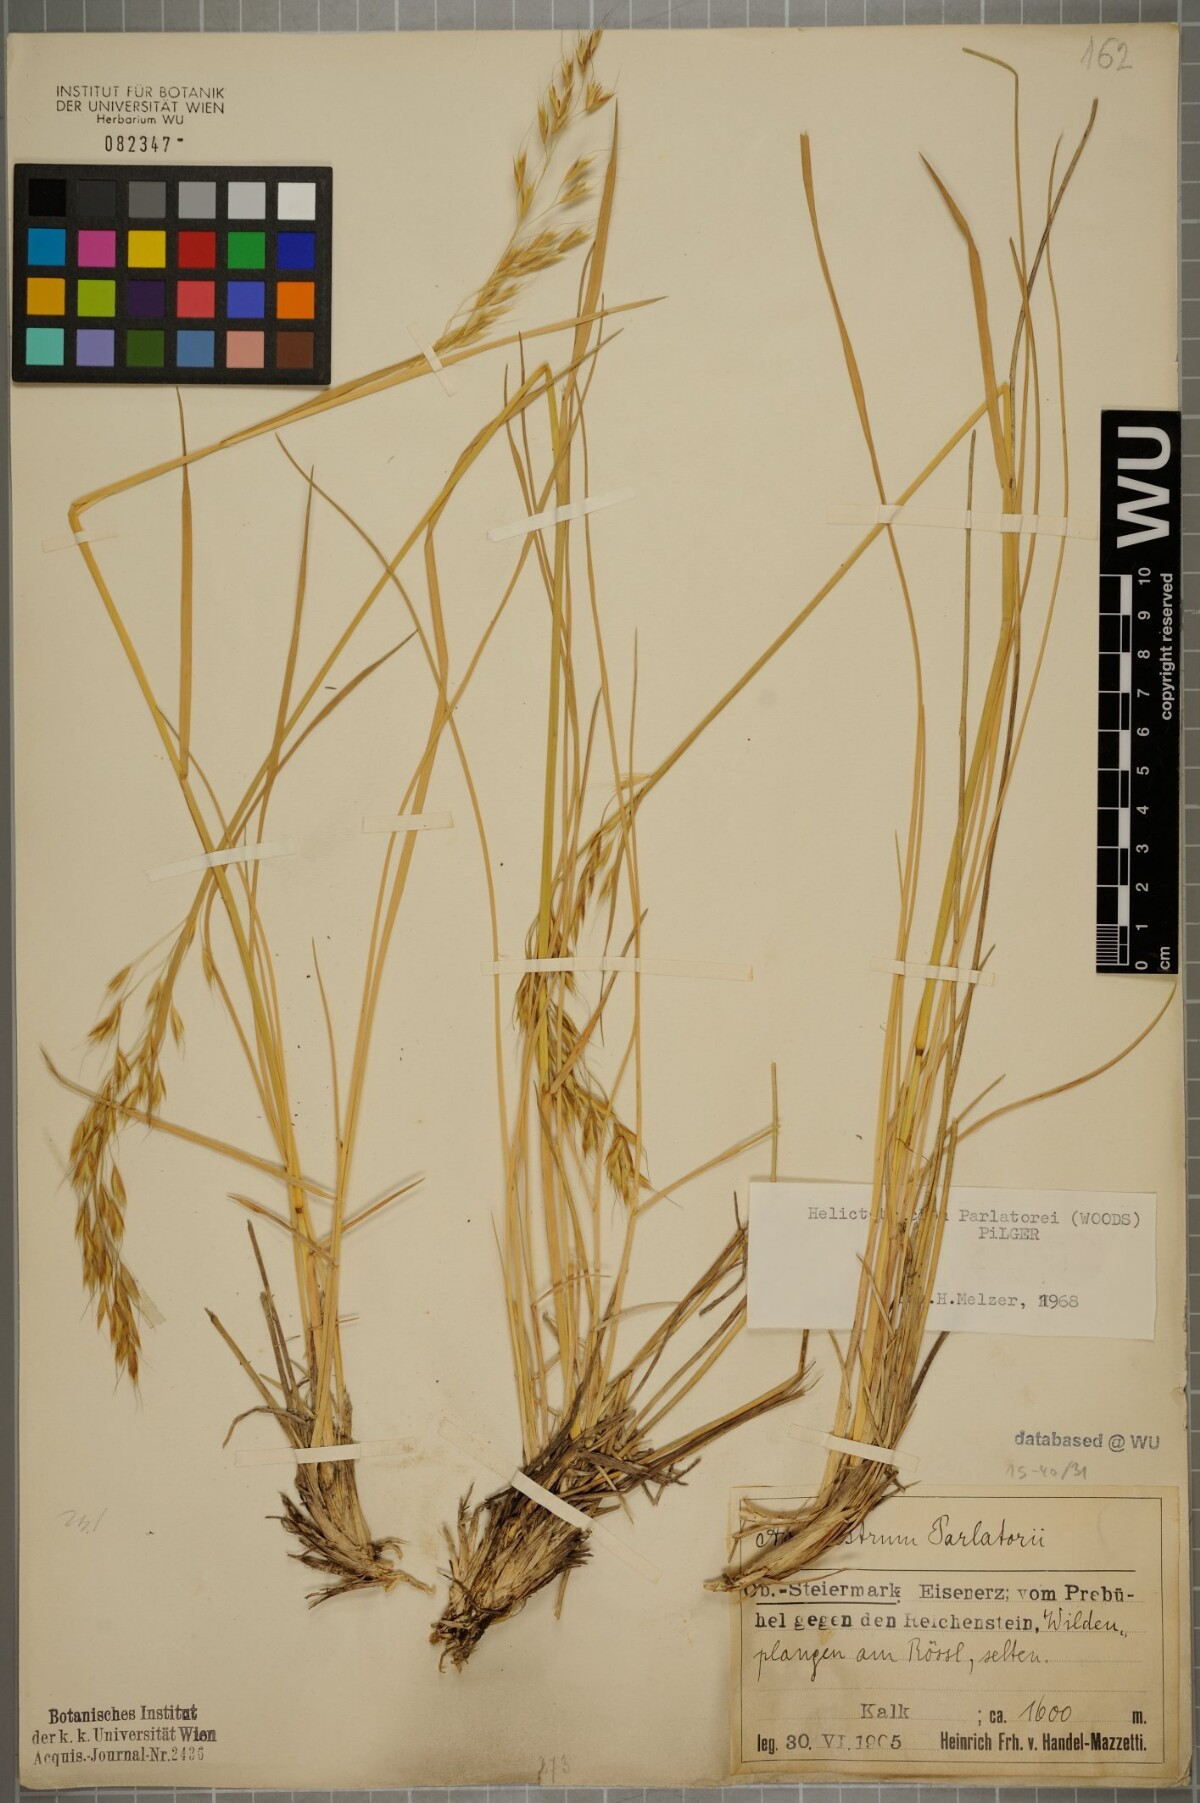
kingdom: Plantae
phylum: Tracheophyta
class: Liliopsida
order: Poales
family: Poaceae
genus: Helictotrichon
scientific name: Helictotrichon parlatorei
